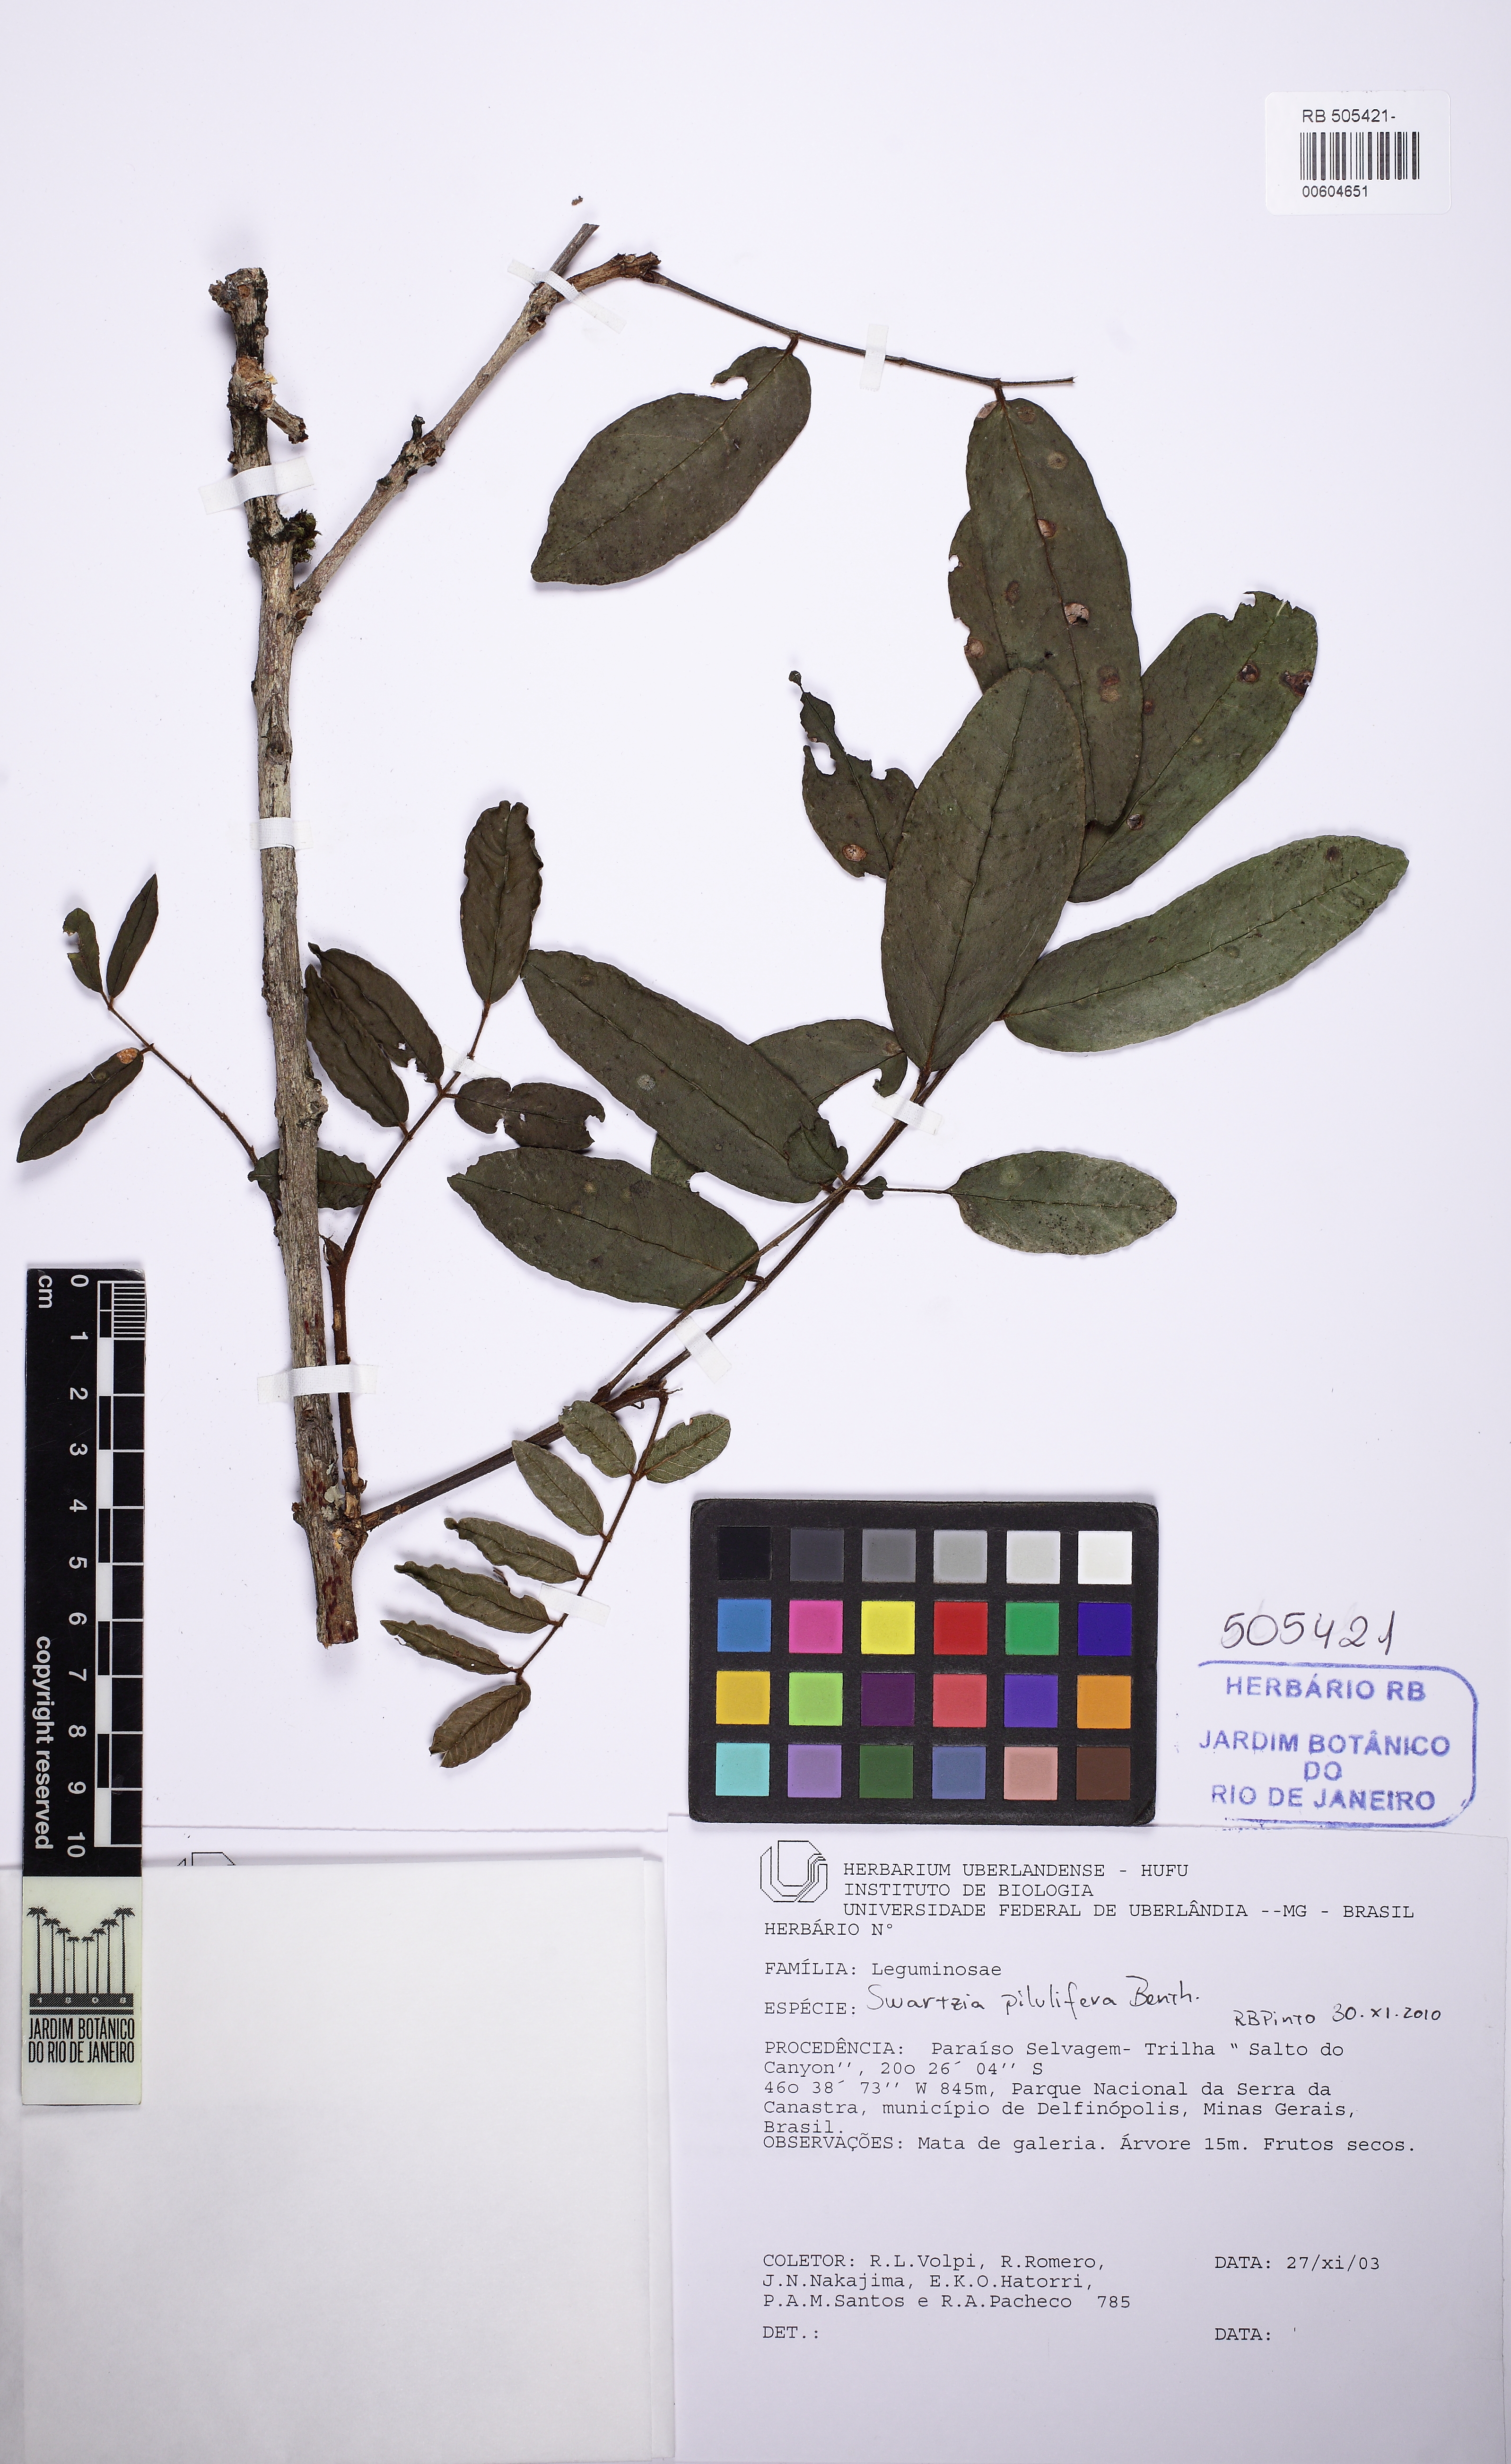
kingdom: Plantae
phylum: Tracheophyta
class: Magnoliopsida
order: Fabales
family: Fabaceae
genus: Swartzia
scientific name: Swartzia pilulifera
